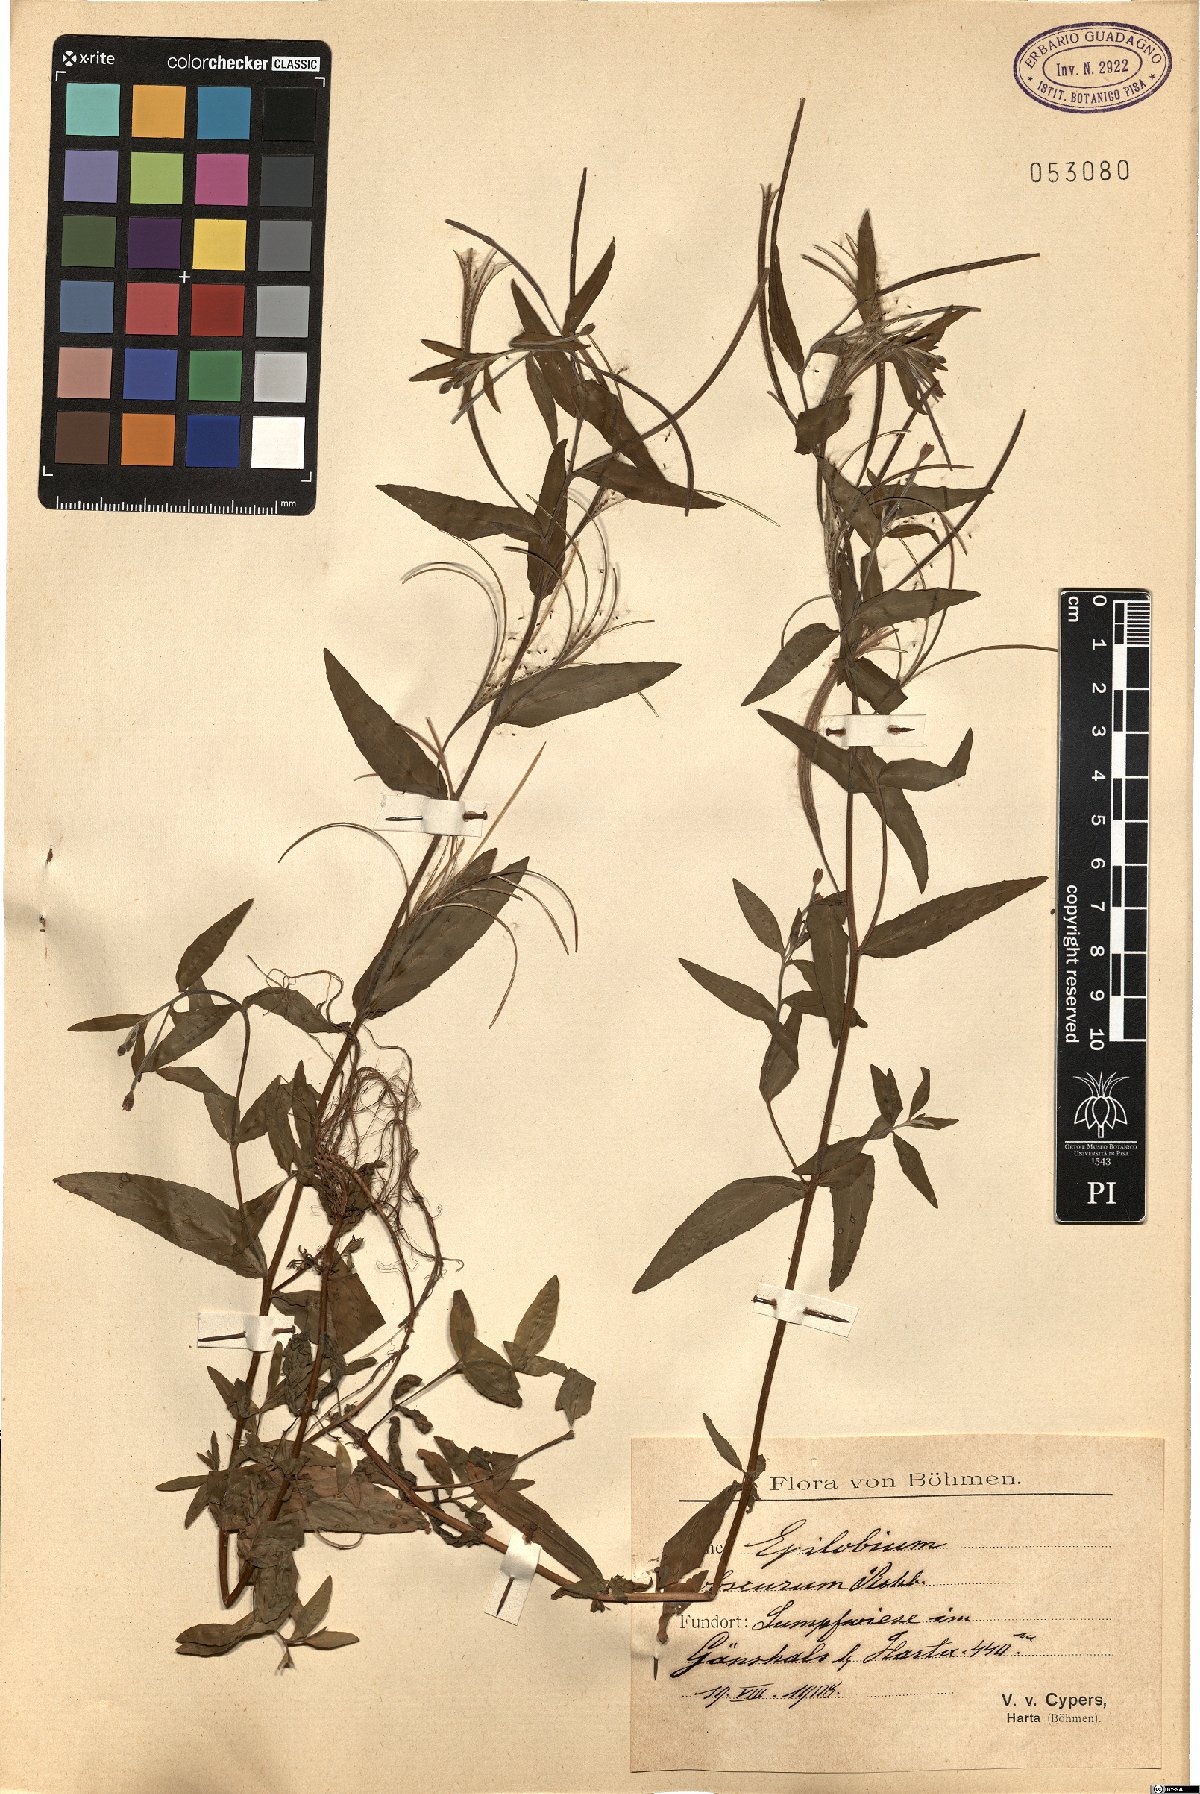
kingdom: Plantae
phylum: Tracheophyta
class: Magnoliopsida
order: Myrtales
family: Onagraceae
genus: Epilobium
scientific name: Epilobium obscurum
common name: Short-fruited willowherb
